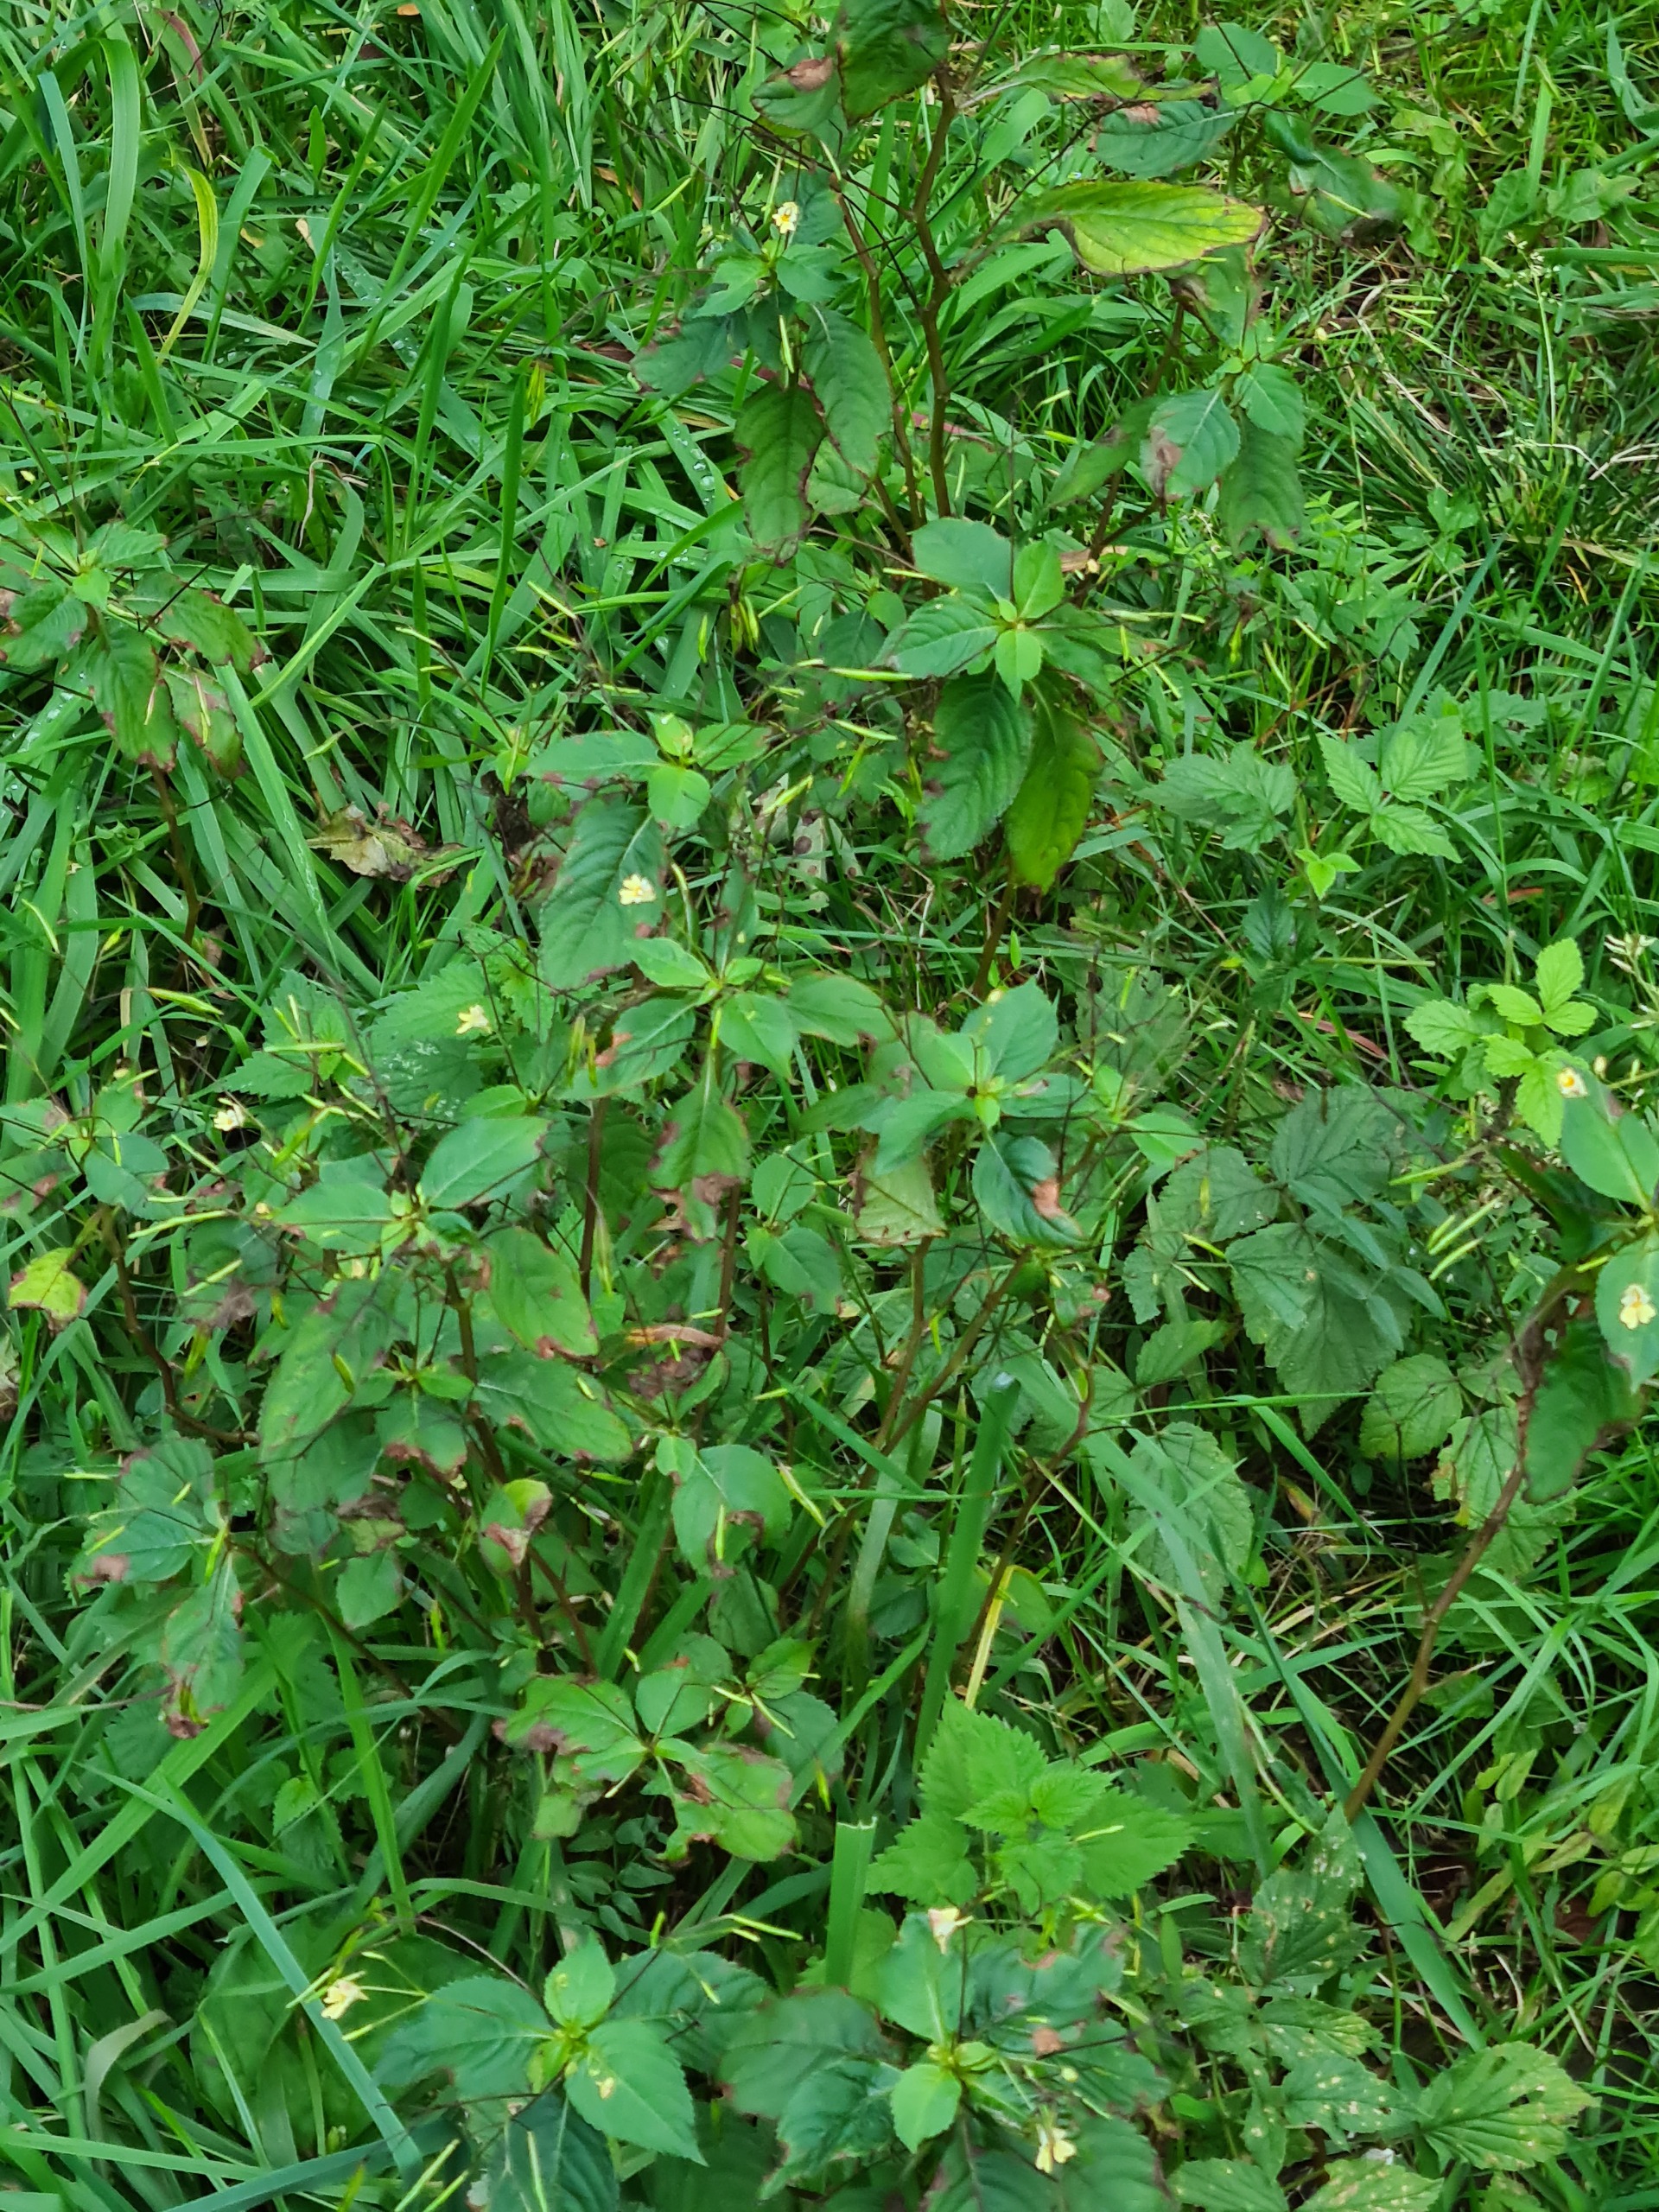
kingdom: Plantae
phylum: Tracheophyta
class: Magnoliopsida
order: Ericales
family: Balsaminaceae
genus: Impatiens
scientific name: Impatiens parviflora
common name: Småblomstret balsamin
